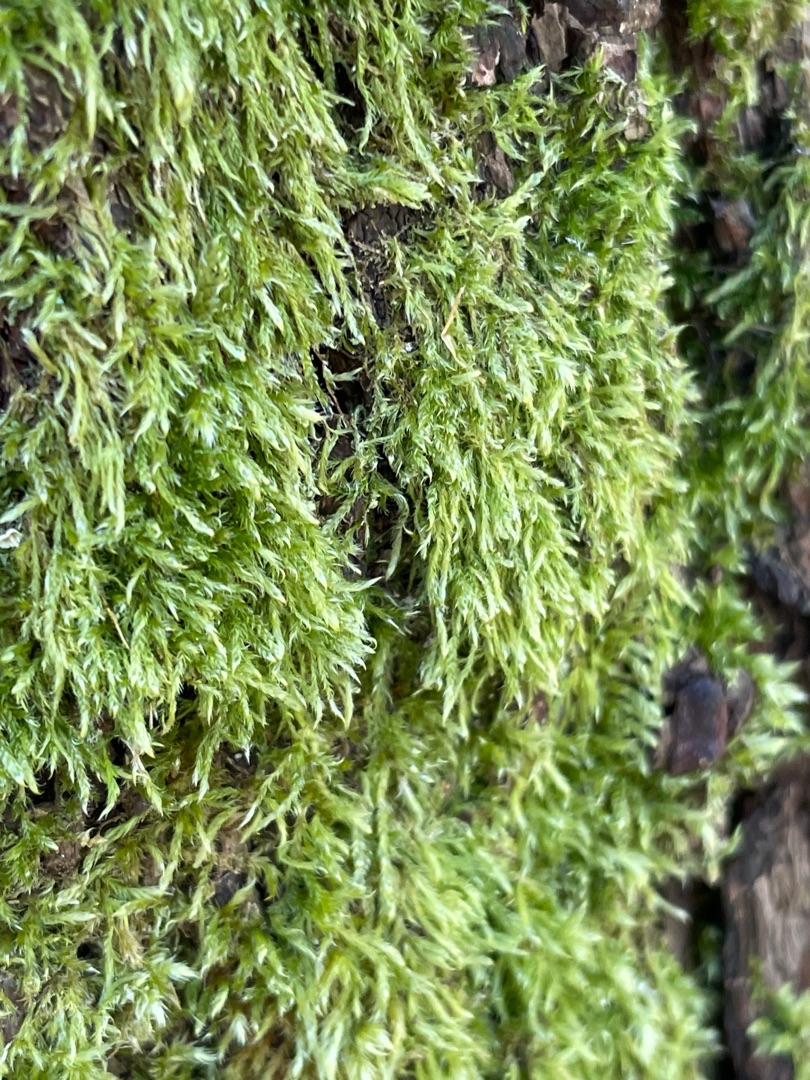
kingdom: Plantae
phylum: Bryophyta
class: Bryopsida
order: Hypnales
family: Hypnaceae
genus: Hypnum
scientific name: Hypnum
